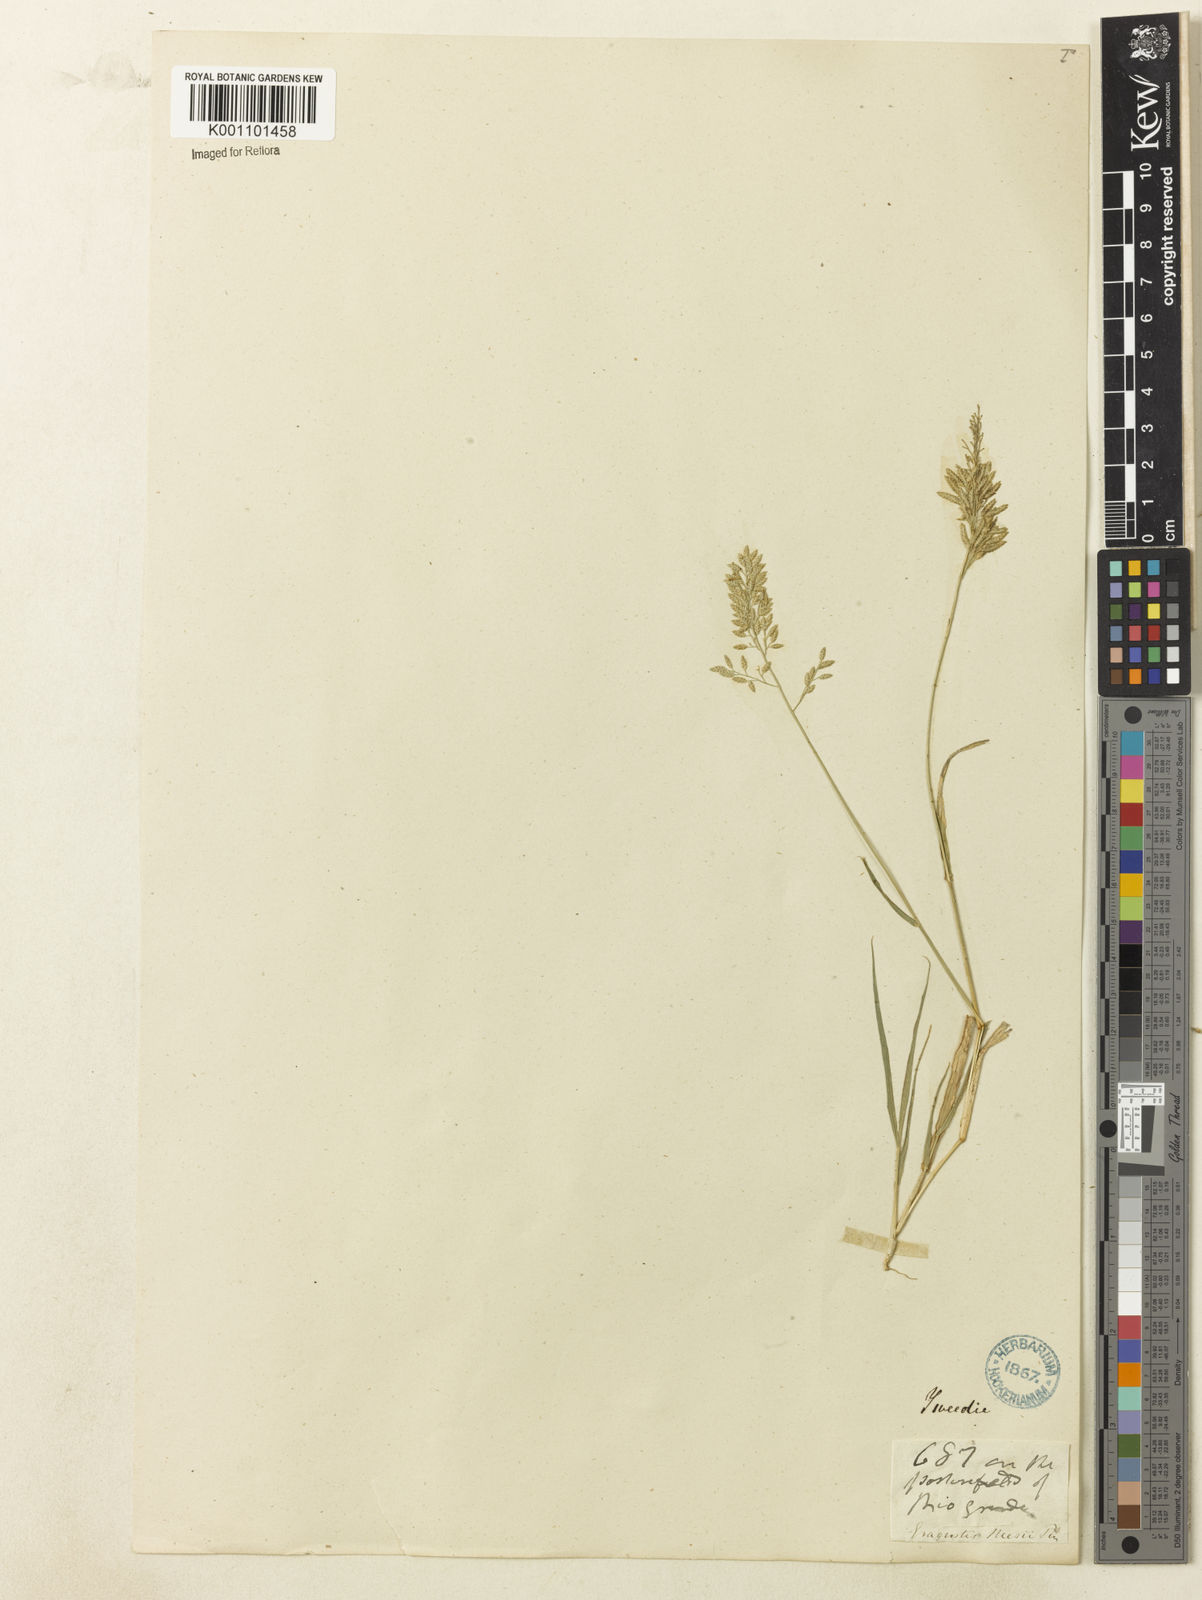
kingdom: Plantae
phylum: Tracheophyta
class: Liliopsida
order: Poales
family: Poaceae
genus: Eragrostis
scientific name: Eragrostis neesii
